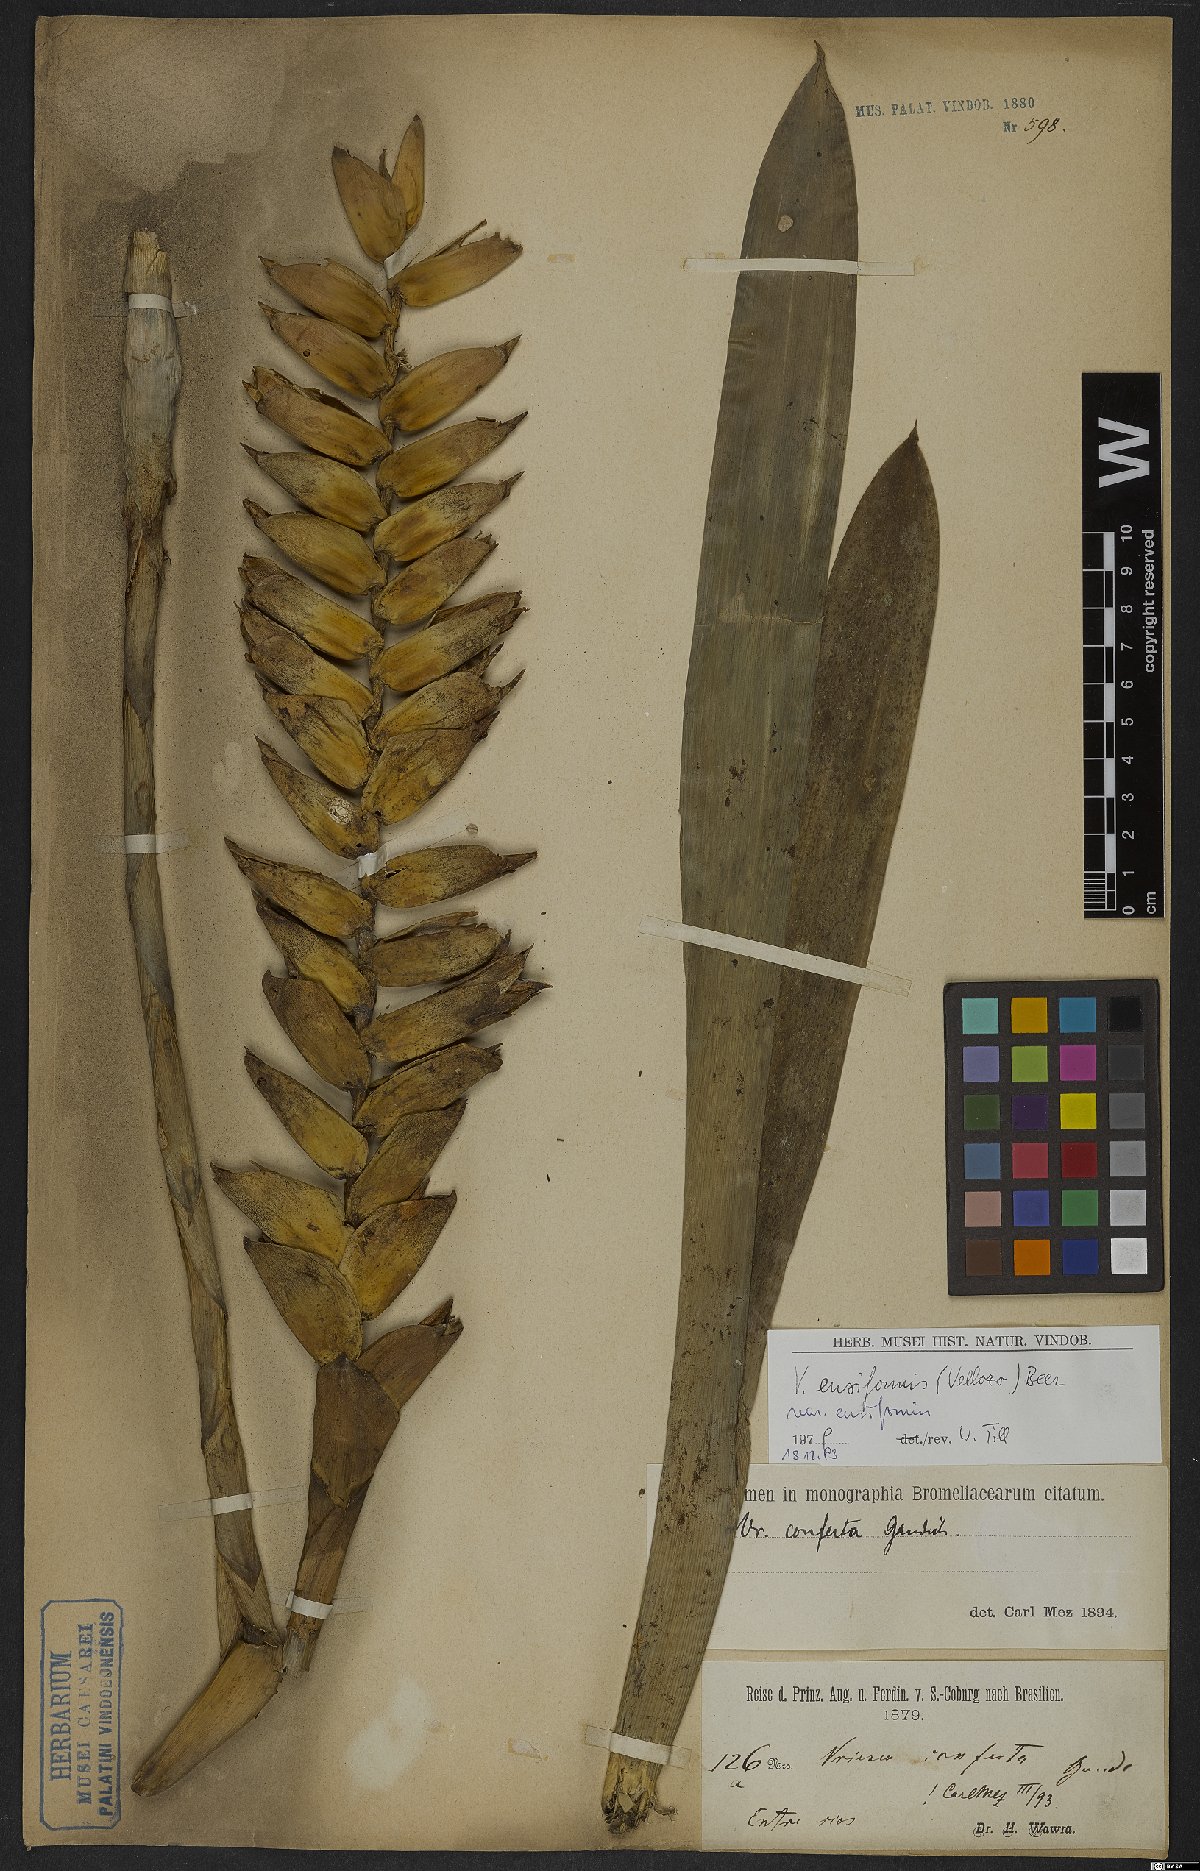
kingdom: Plantae
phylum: Tracheophyta
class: Liliopsida
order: Poales
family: Bromeliaceae
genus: Vriesea
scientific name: Vriesea ensiformis
